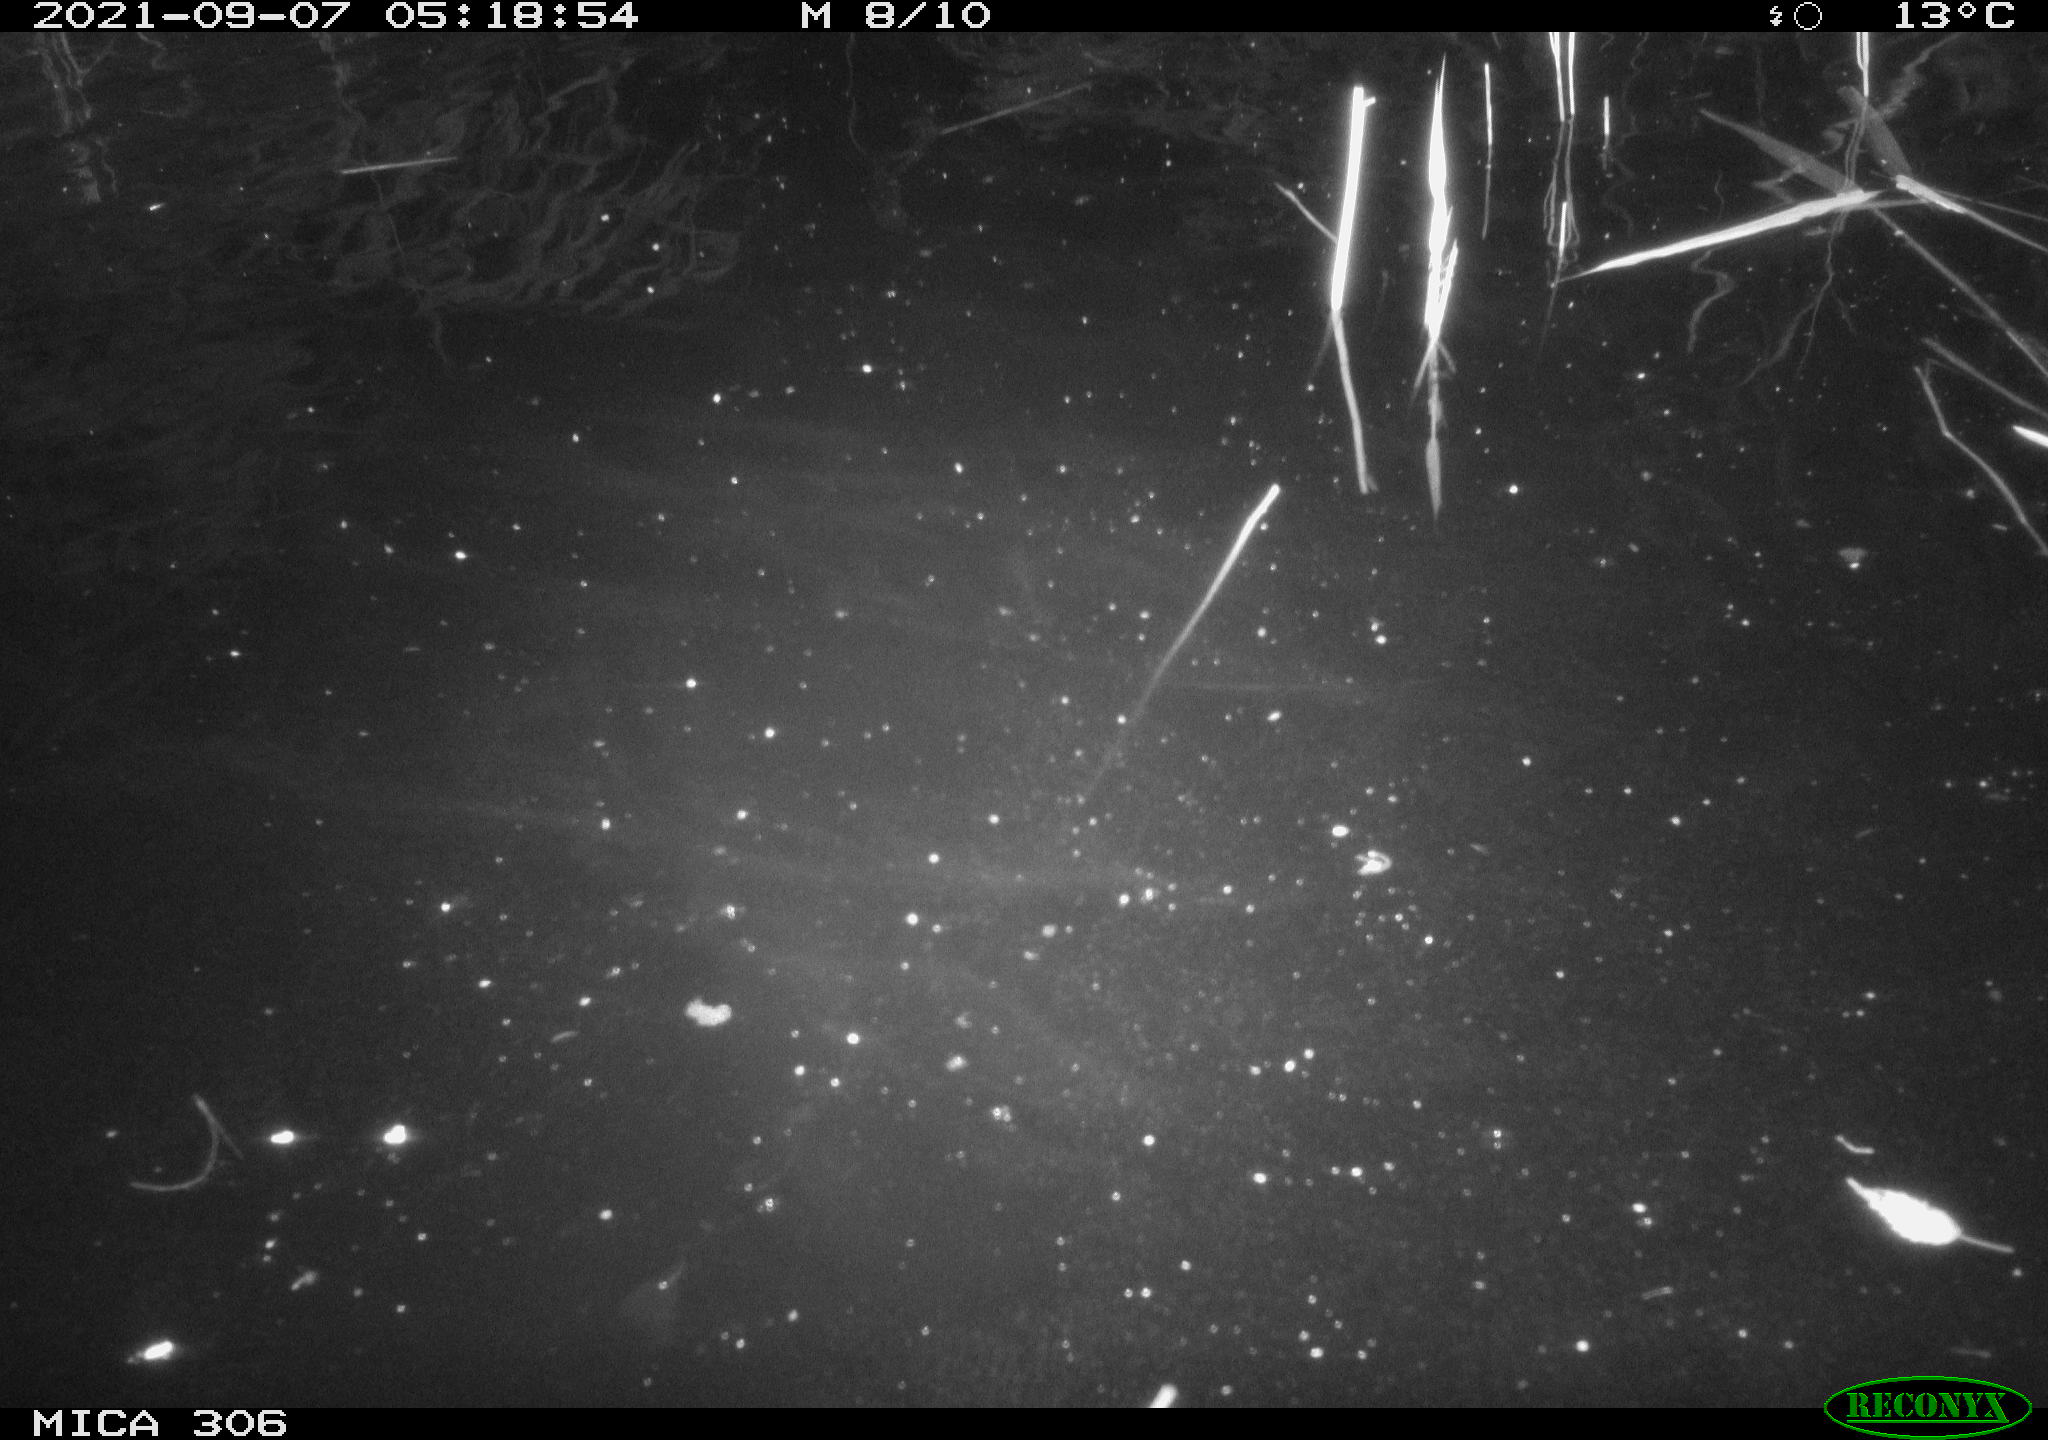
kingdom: Animalia
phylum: Chordata
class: Mammalia
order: Rodentia
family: Cricetidae
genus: Ondatra
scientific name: Ondatra zibethicus
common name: Muskrat
